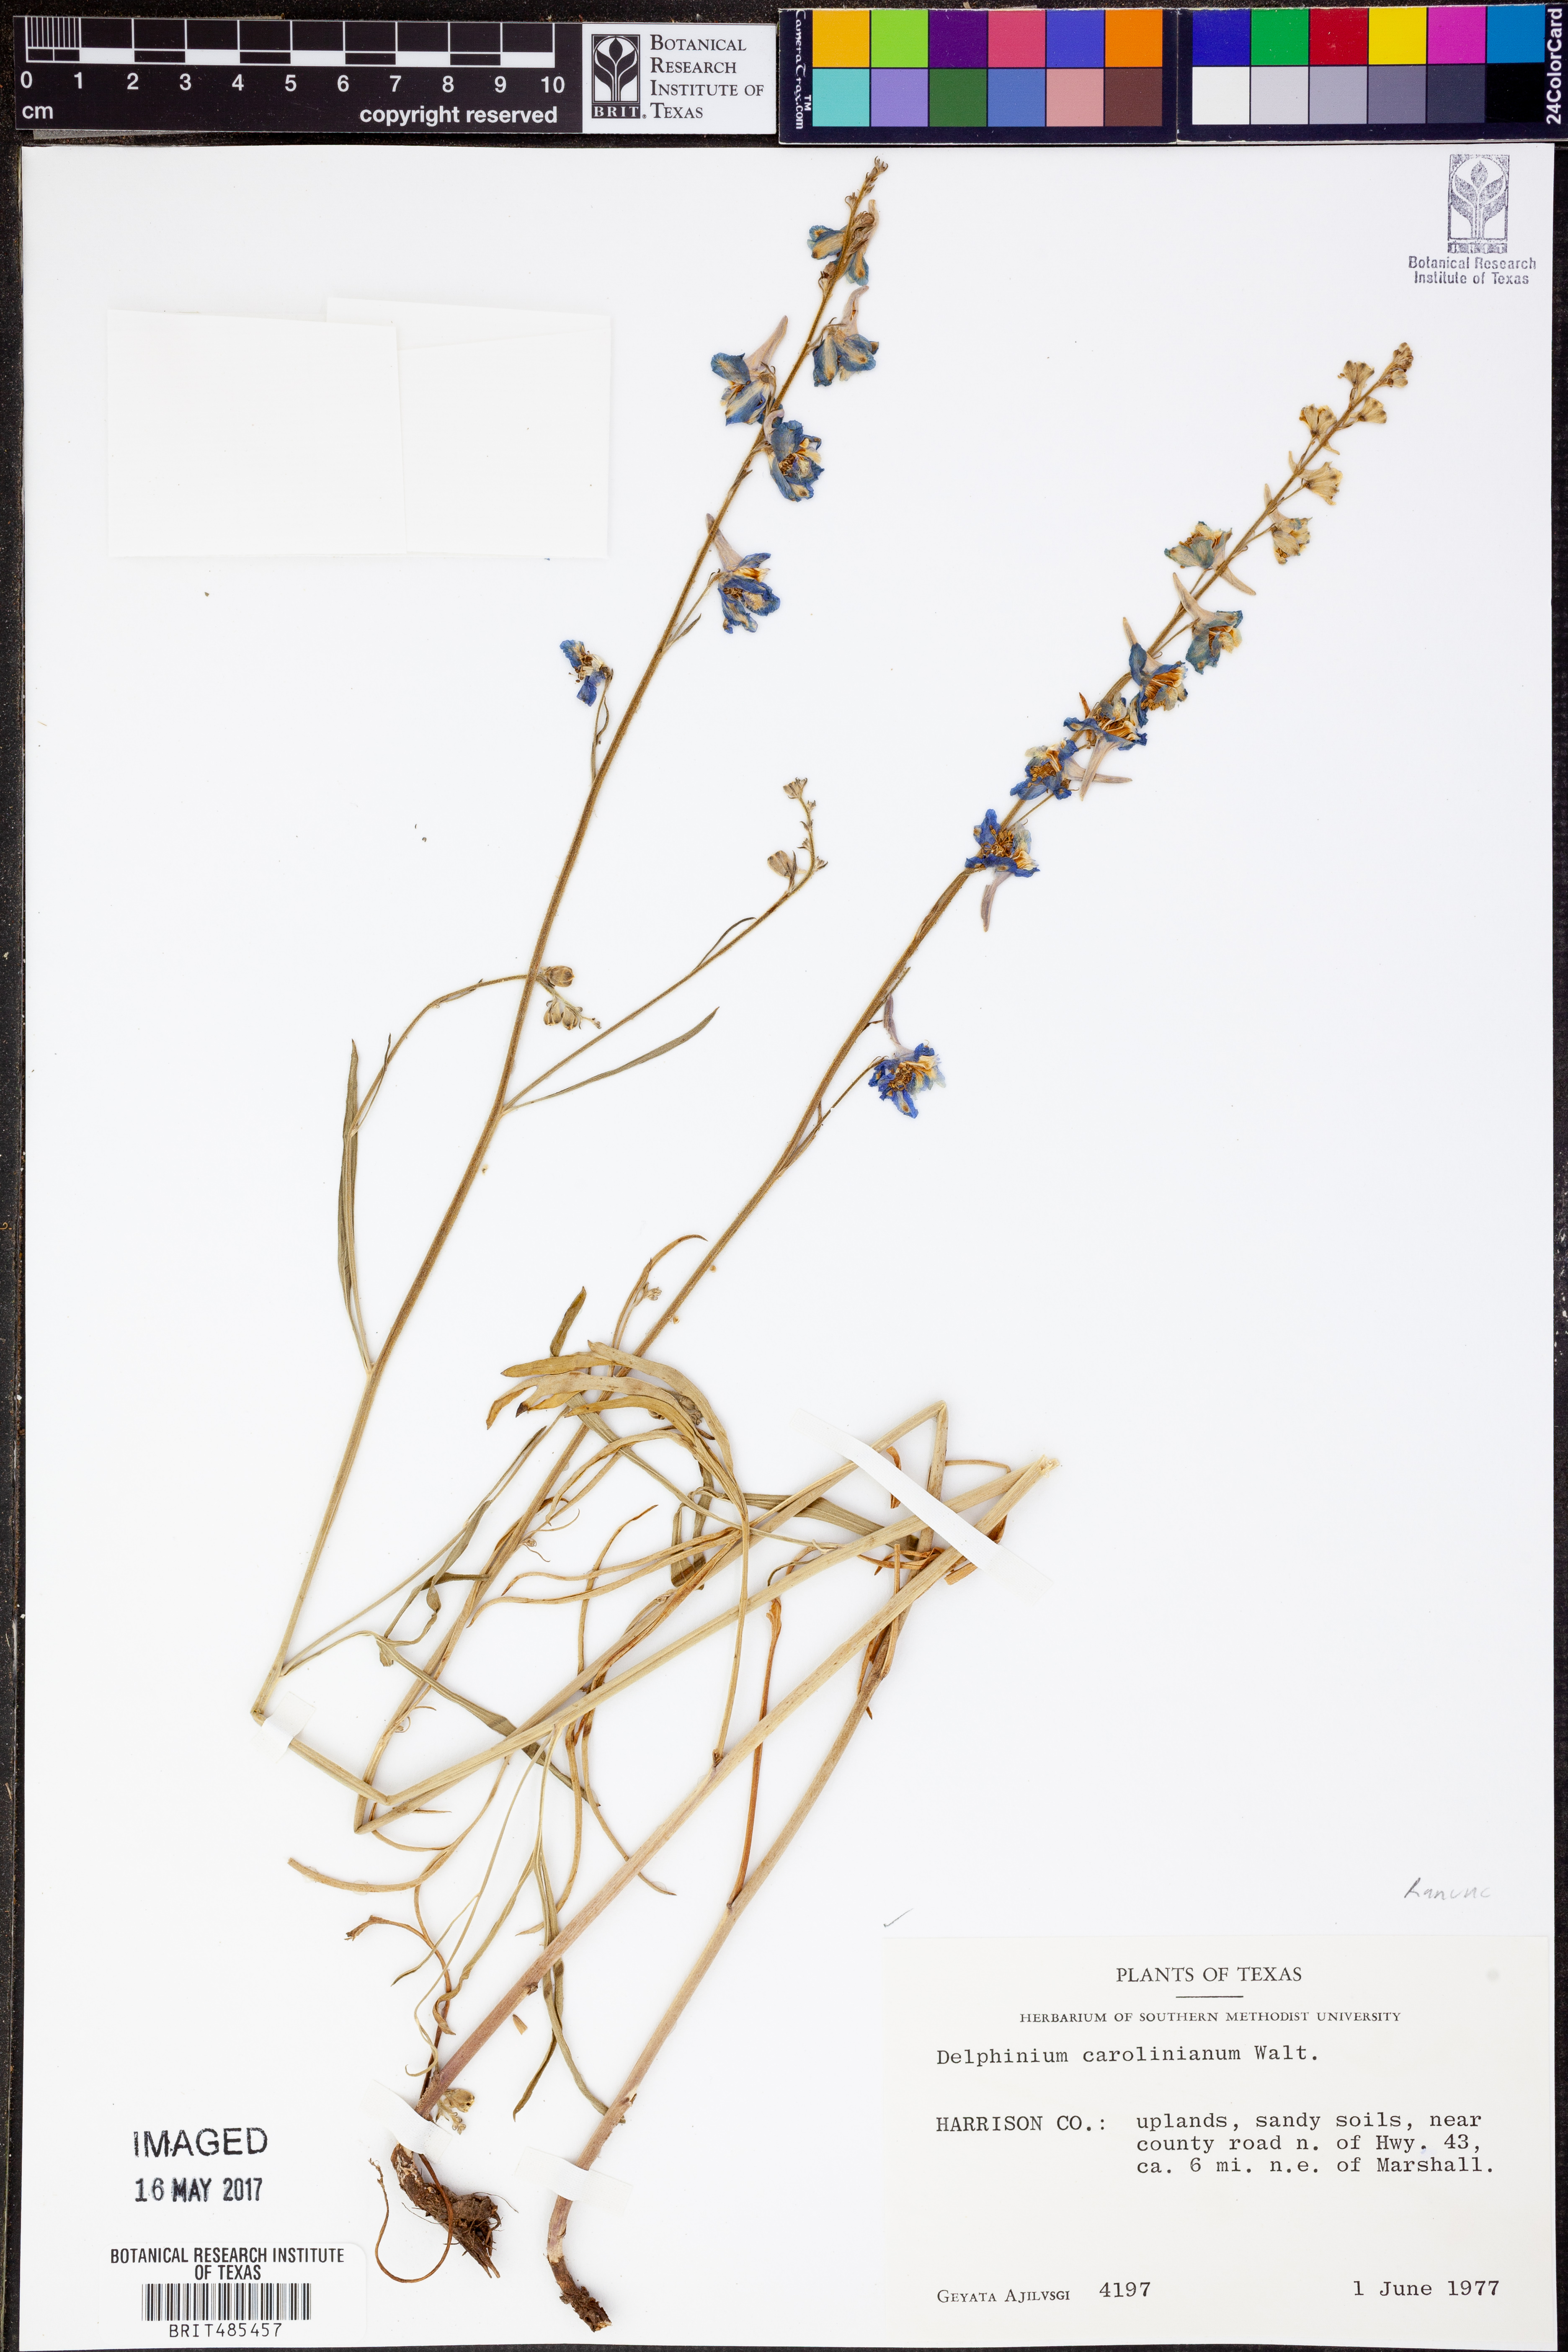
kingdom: Plantae
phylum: Tracheophyta
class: Magnoliopsida
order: Ranunculales
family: Ranunculaceae
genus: Delphinium
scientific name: Delphinium carolinianum
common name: Carolina larkspur
